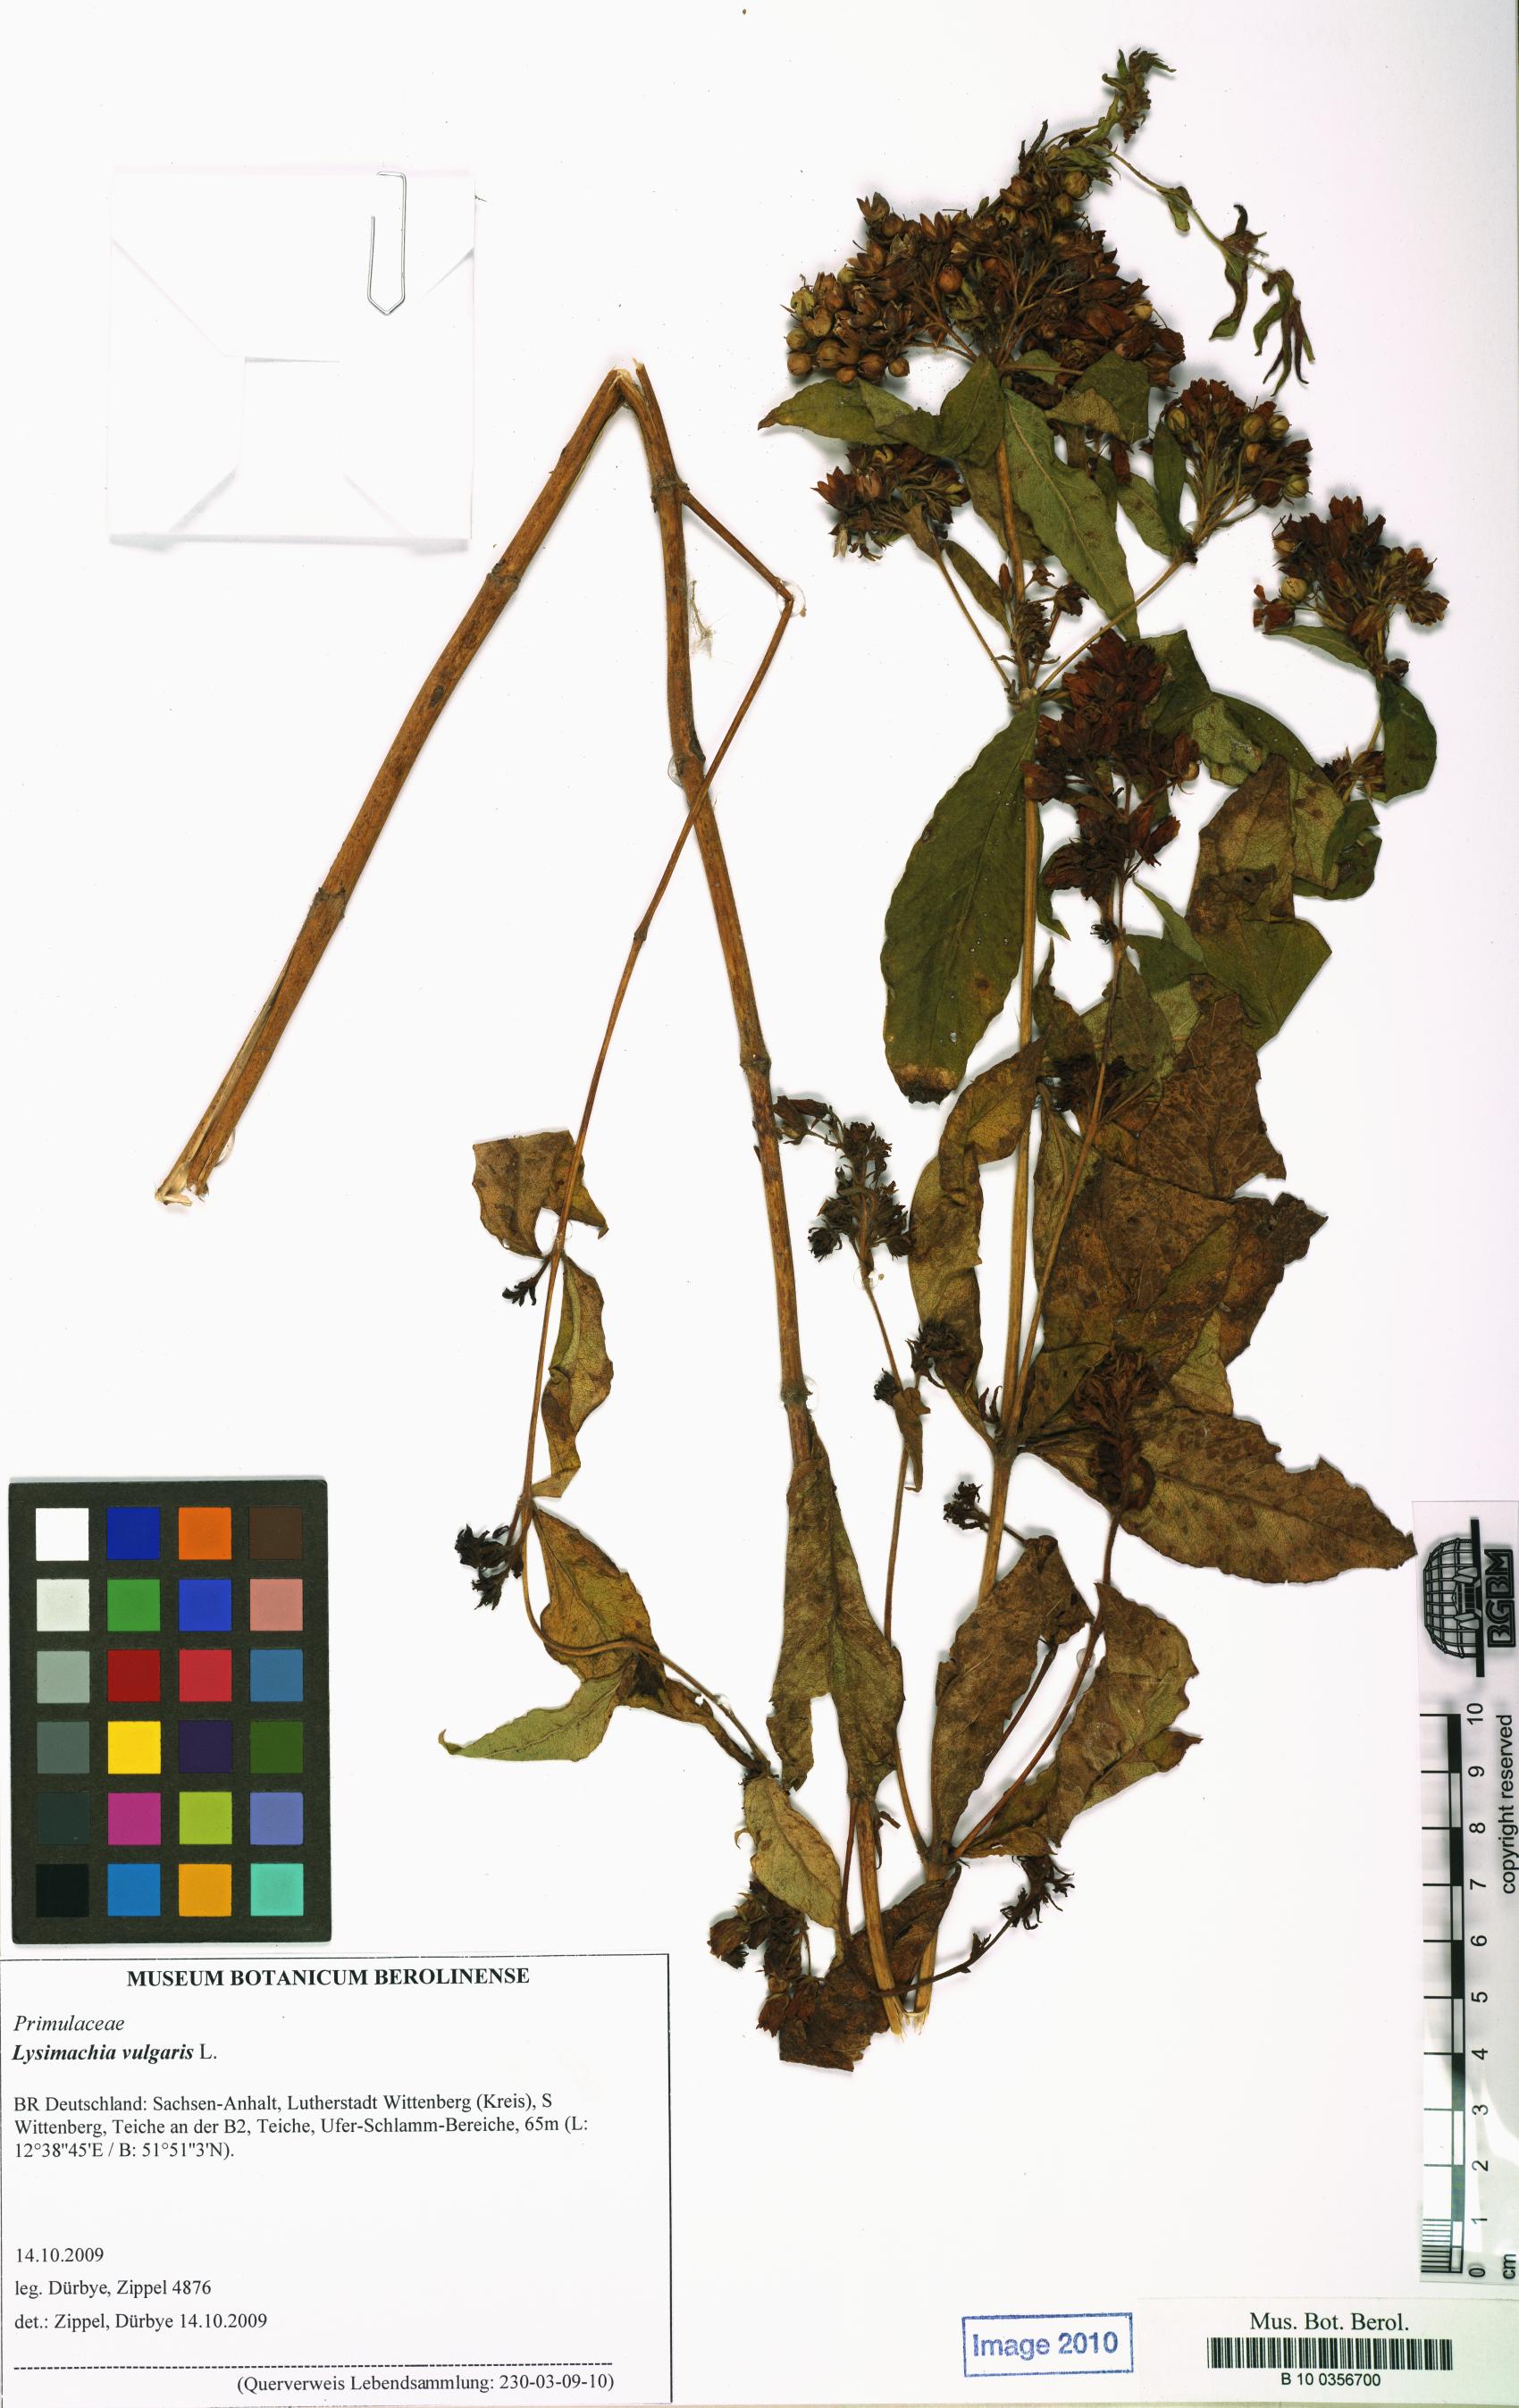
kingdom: Plantae
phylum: Tracheophyta
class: Magnoliopsida
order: Ericales
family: Primulaceae
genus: Lysimachia
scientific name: Lysimachia vulgaris
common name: Yellow loosestrife
